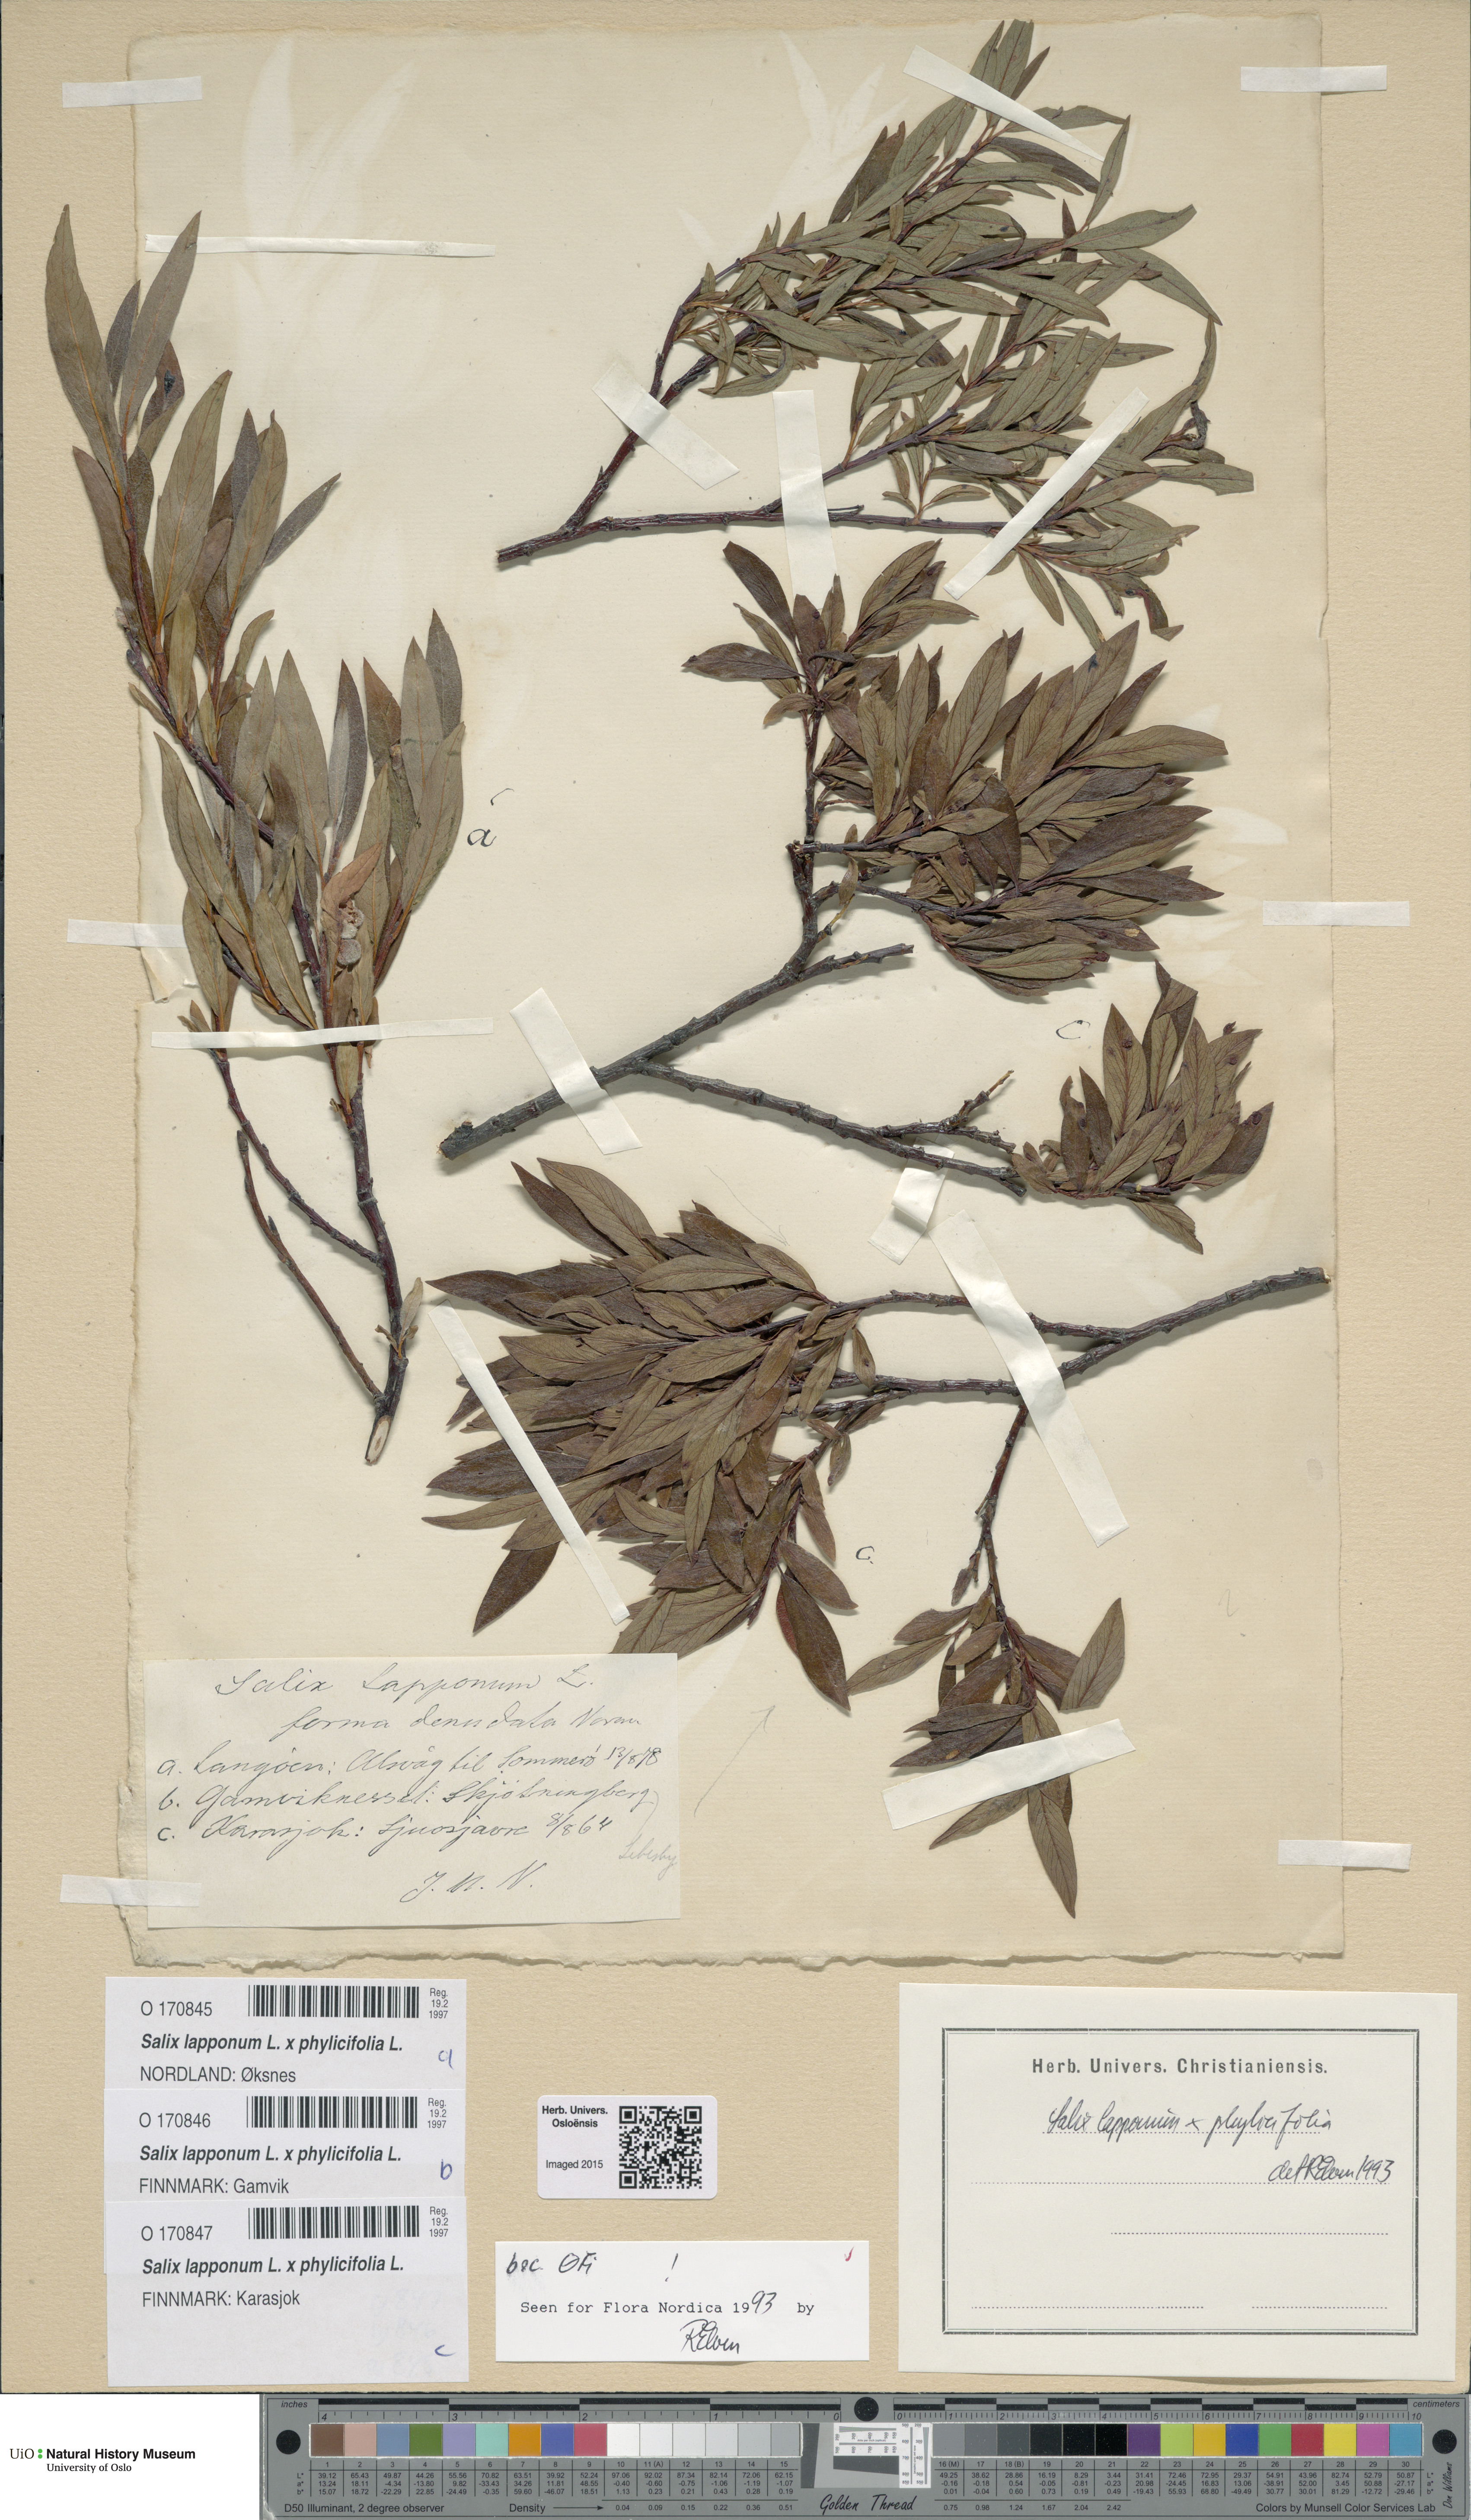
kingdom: Plantae
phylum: Tracheophyta
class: Magnoliopsida
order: Malpighiales
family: Salicaceae
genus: Salix
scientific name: Salix
